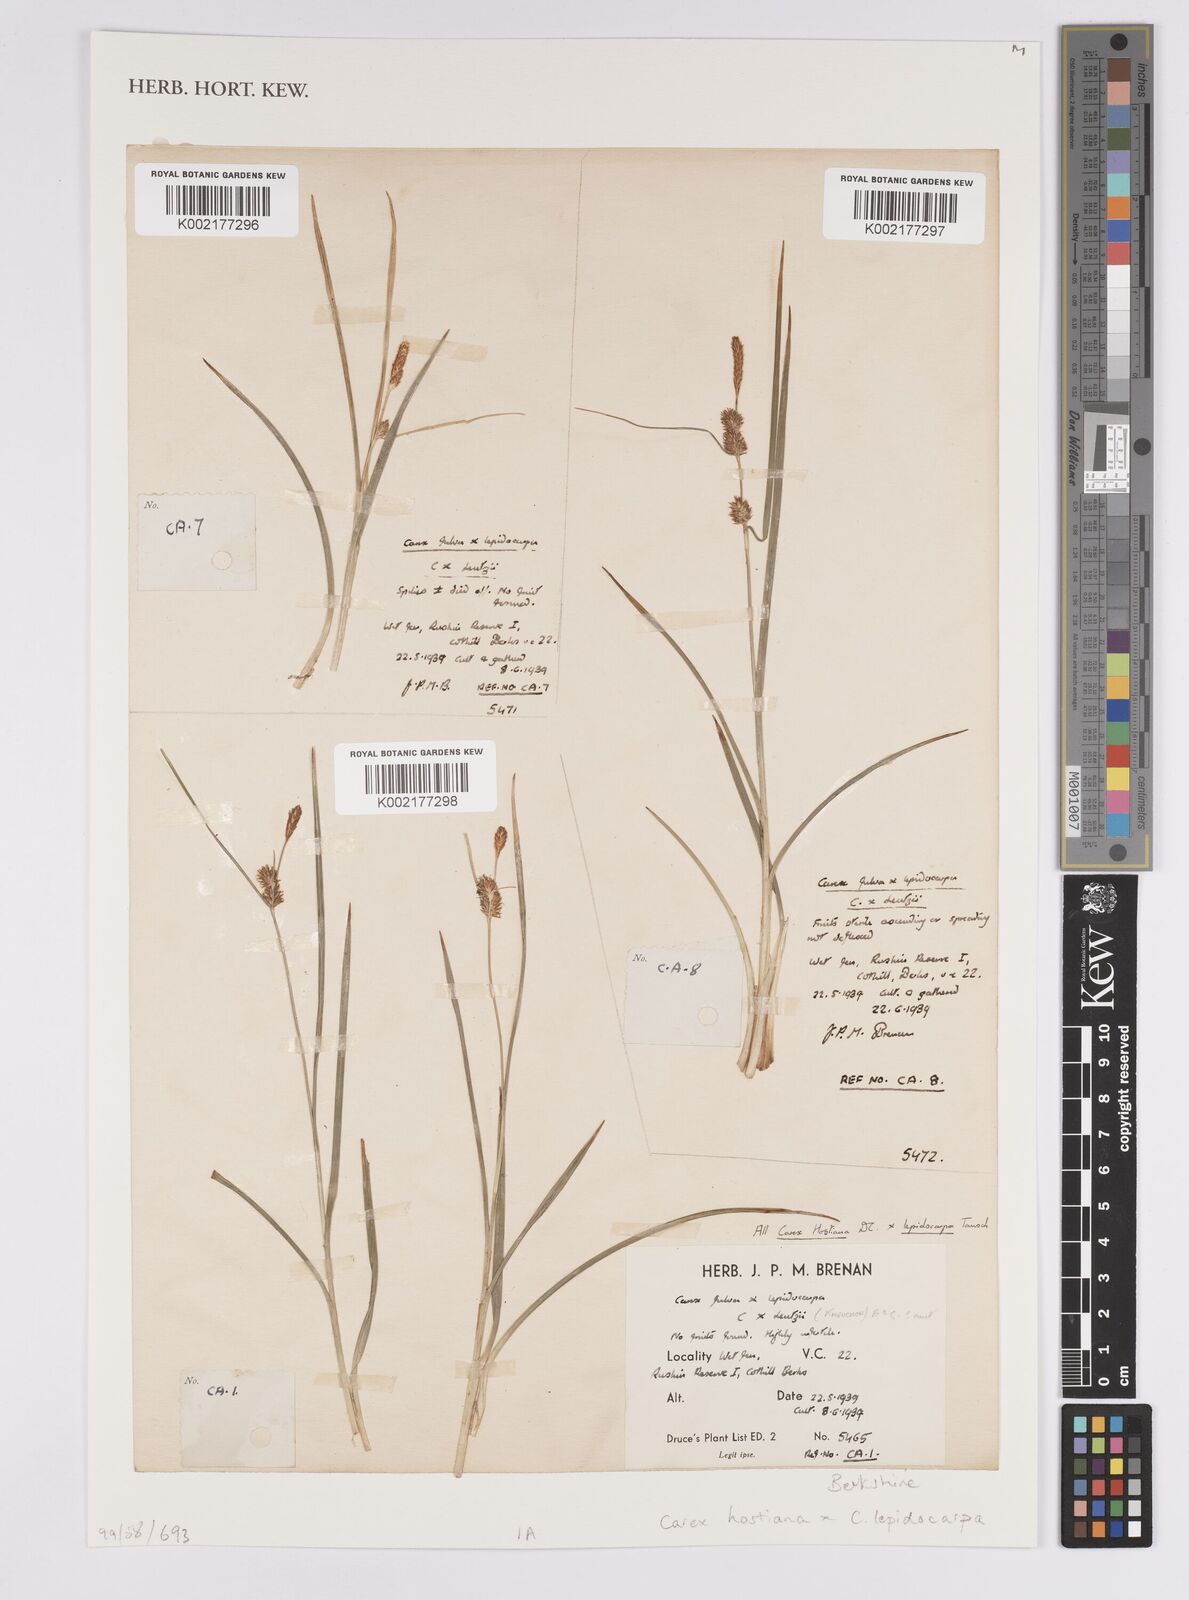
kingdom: Plantae
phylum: Tracheophyta
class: Liliopsida
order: Poales
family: Cyperaceae
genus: Carex
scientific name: Carex hostiana
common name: Tawny sedge
